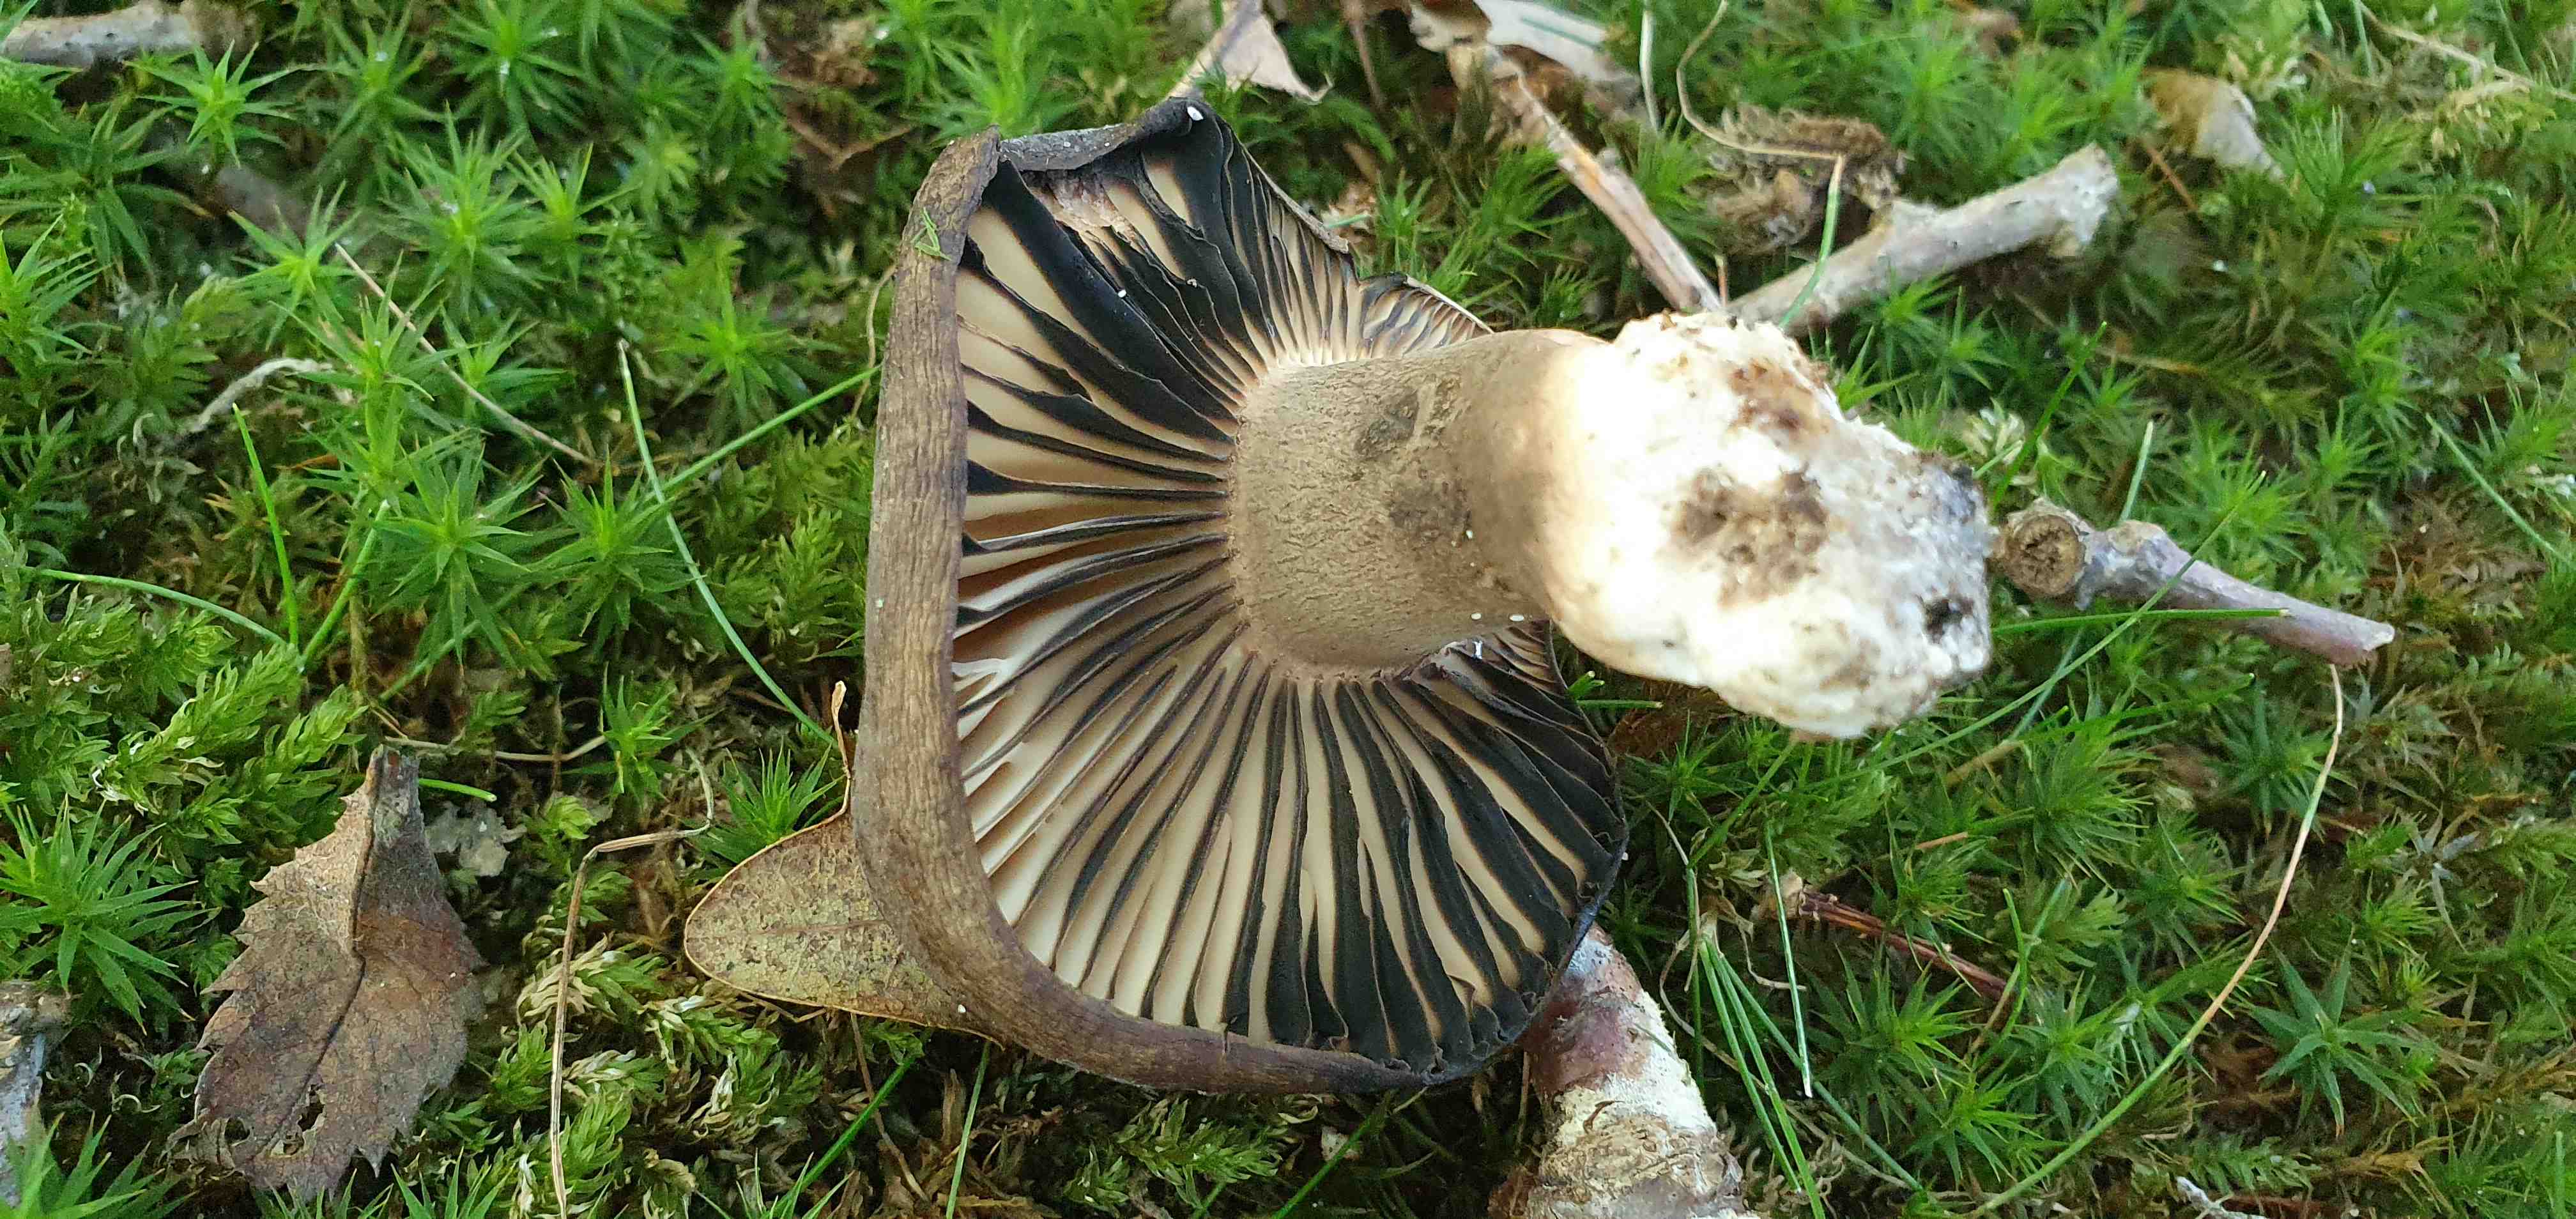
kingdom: Fungi
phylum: Basidiomycota
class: Agaricomycetes
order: Russulales
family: Russulaceae
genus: Russula
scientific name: Russula adusta
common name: sværtende skørhat
